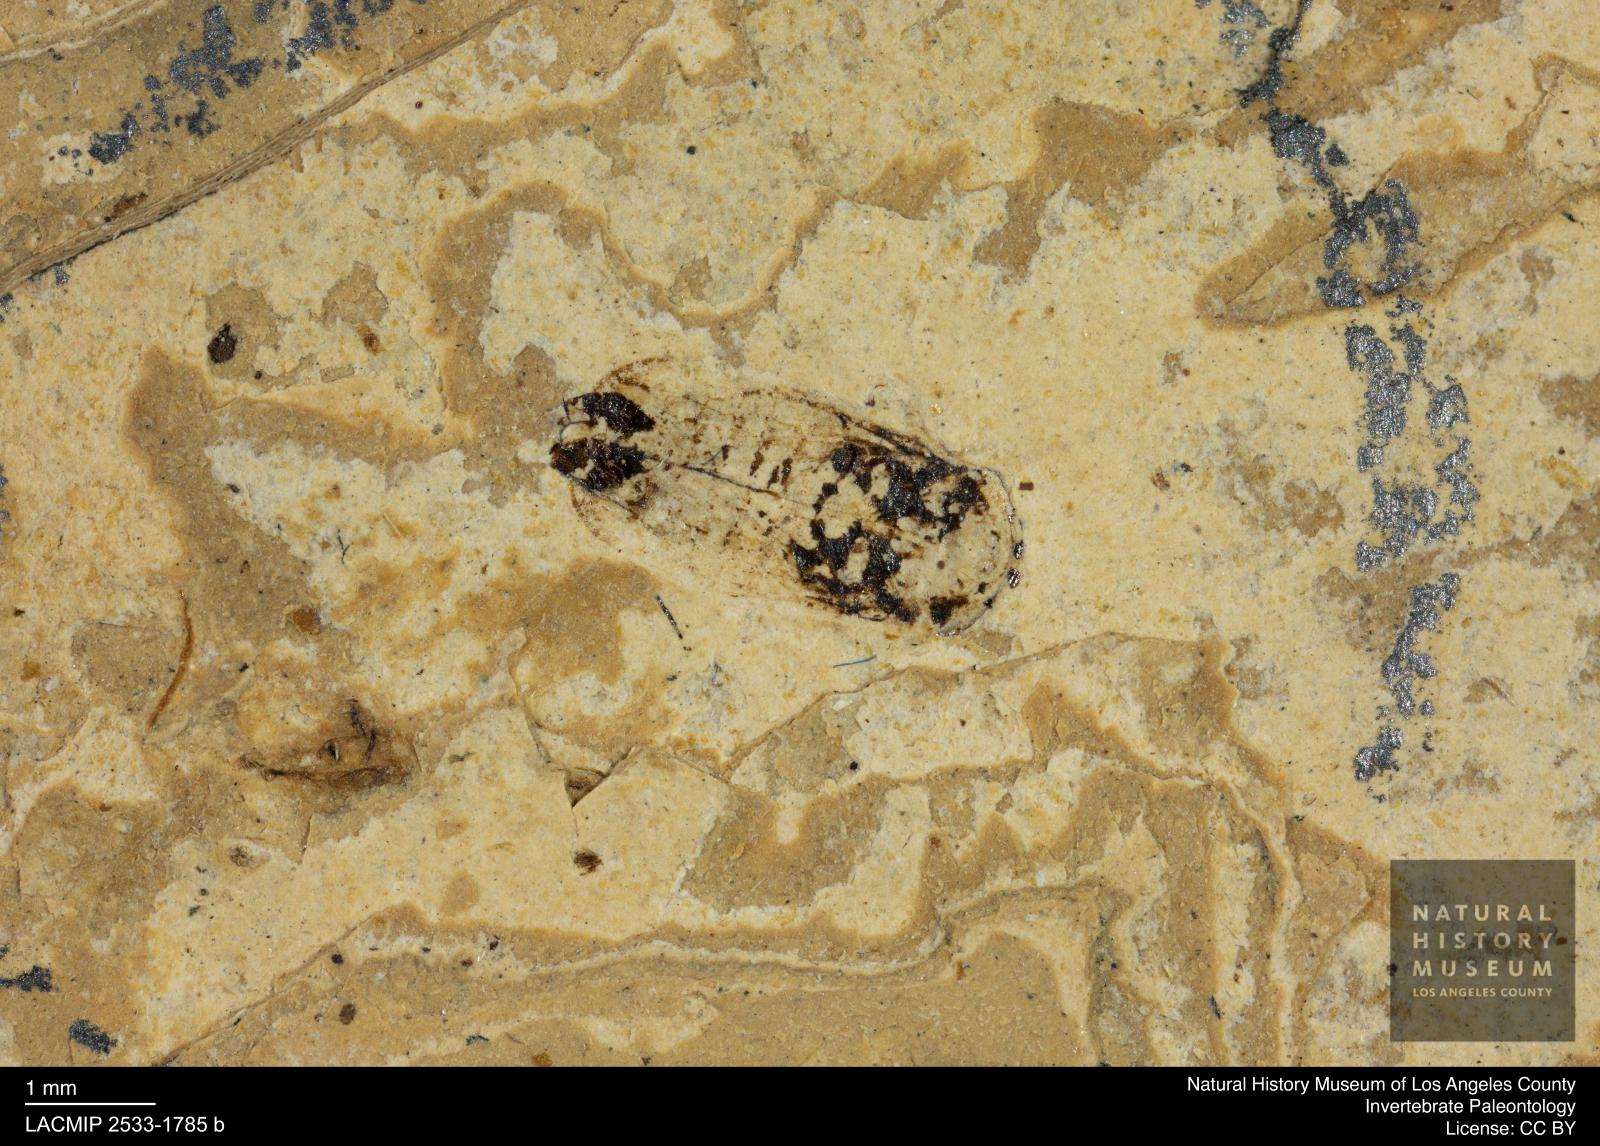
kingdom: Animalia
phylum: Arthropoda
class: Insecta
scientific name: Insecta
